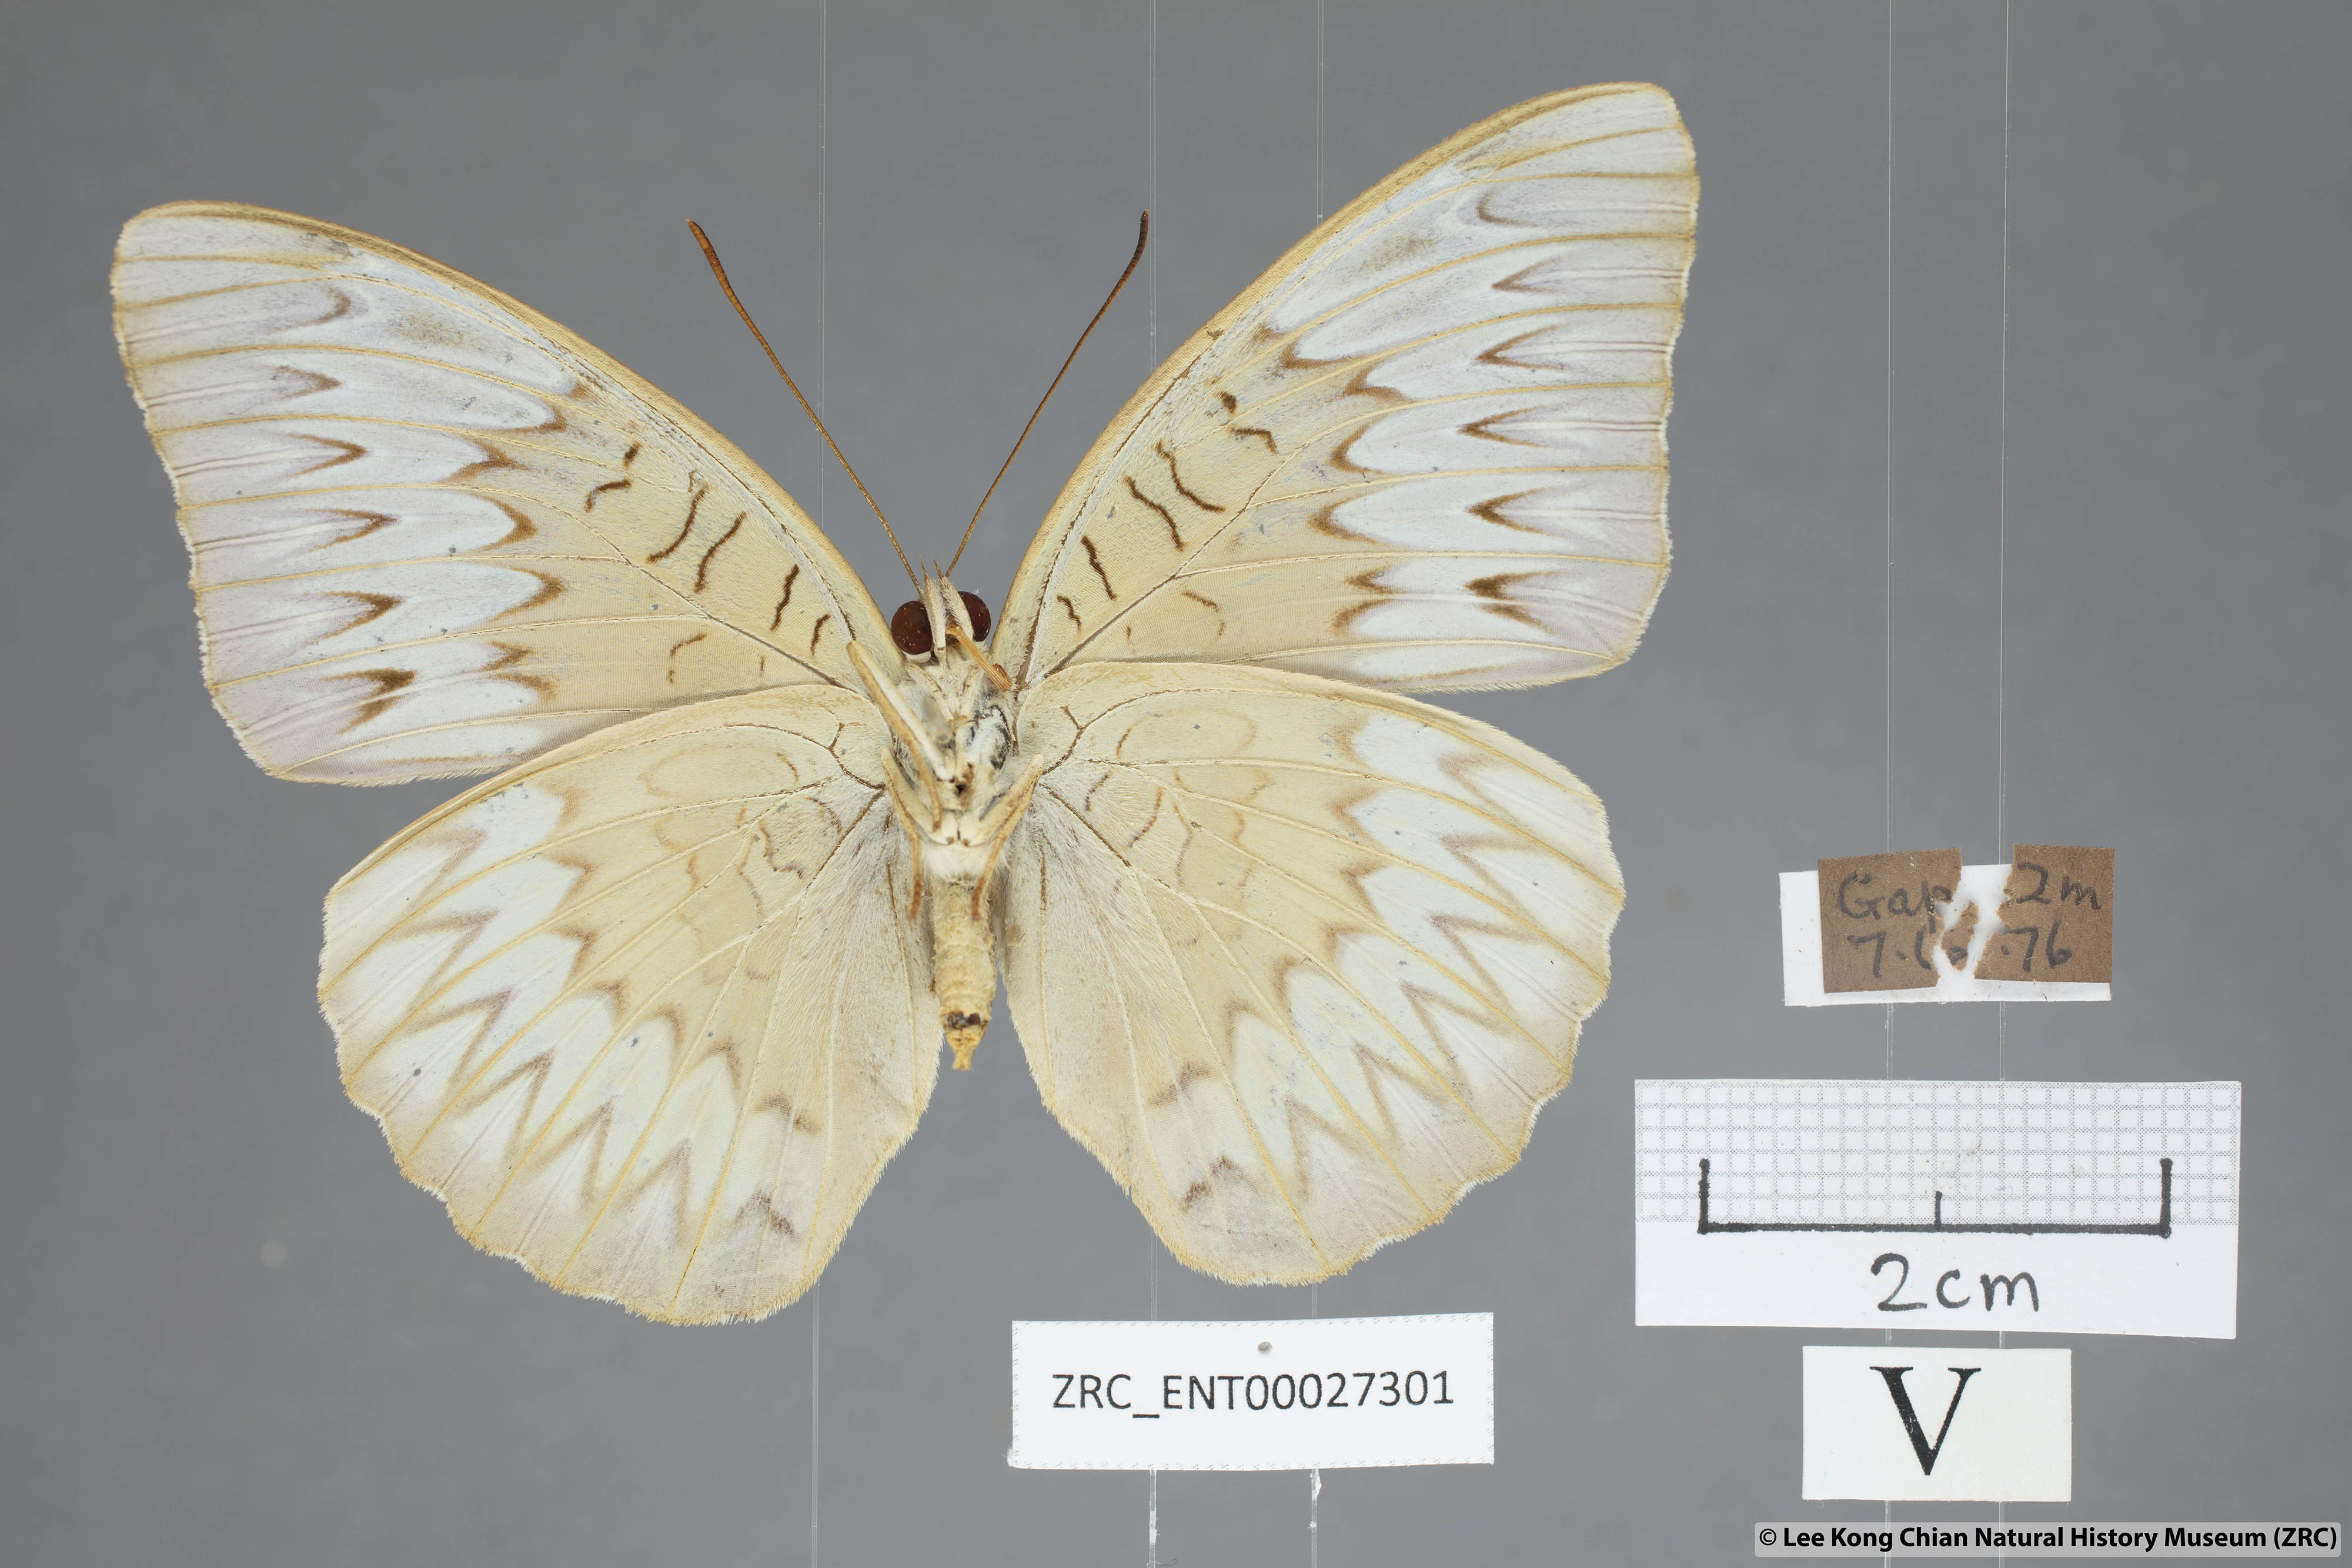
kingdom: Animalia
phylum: Arthropoda
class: Insecta
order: Lepidoptera
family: Nymphalidae
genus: Tanaecia
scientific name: Tanaecia munda
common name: Peninsular viscount
